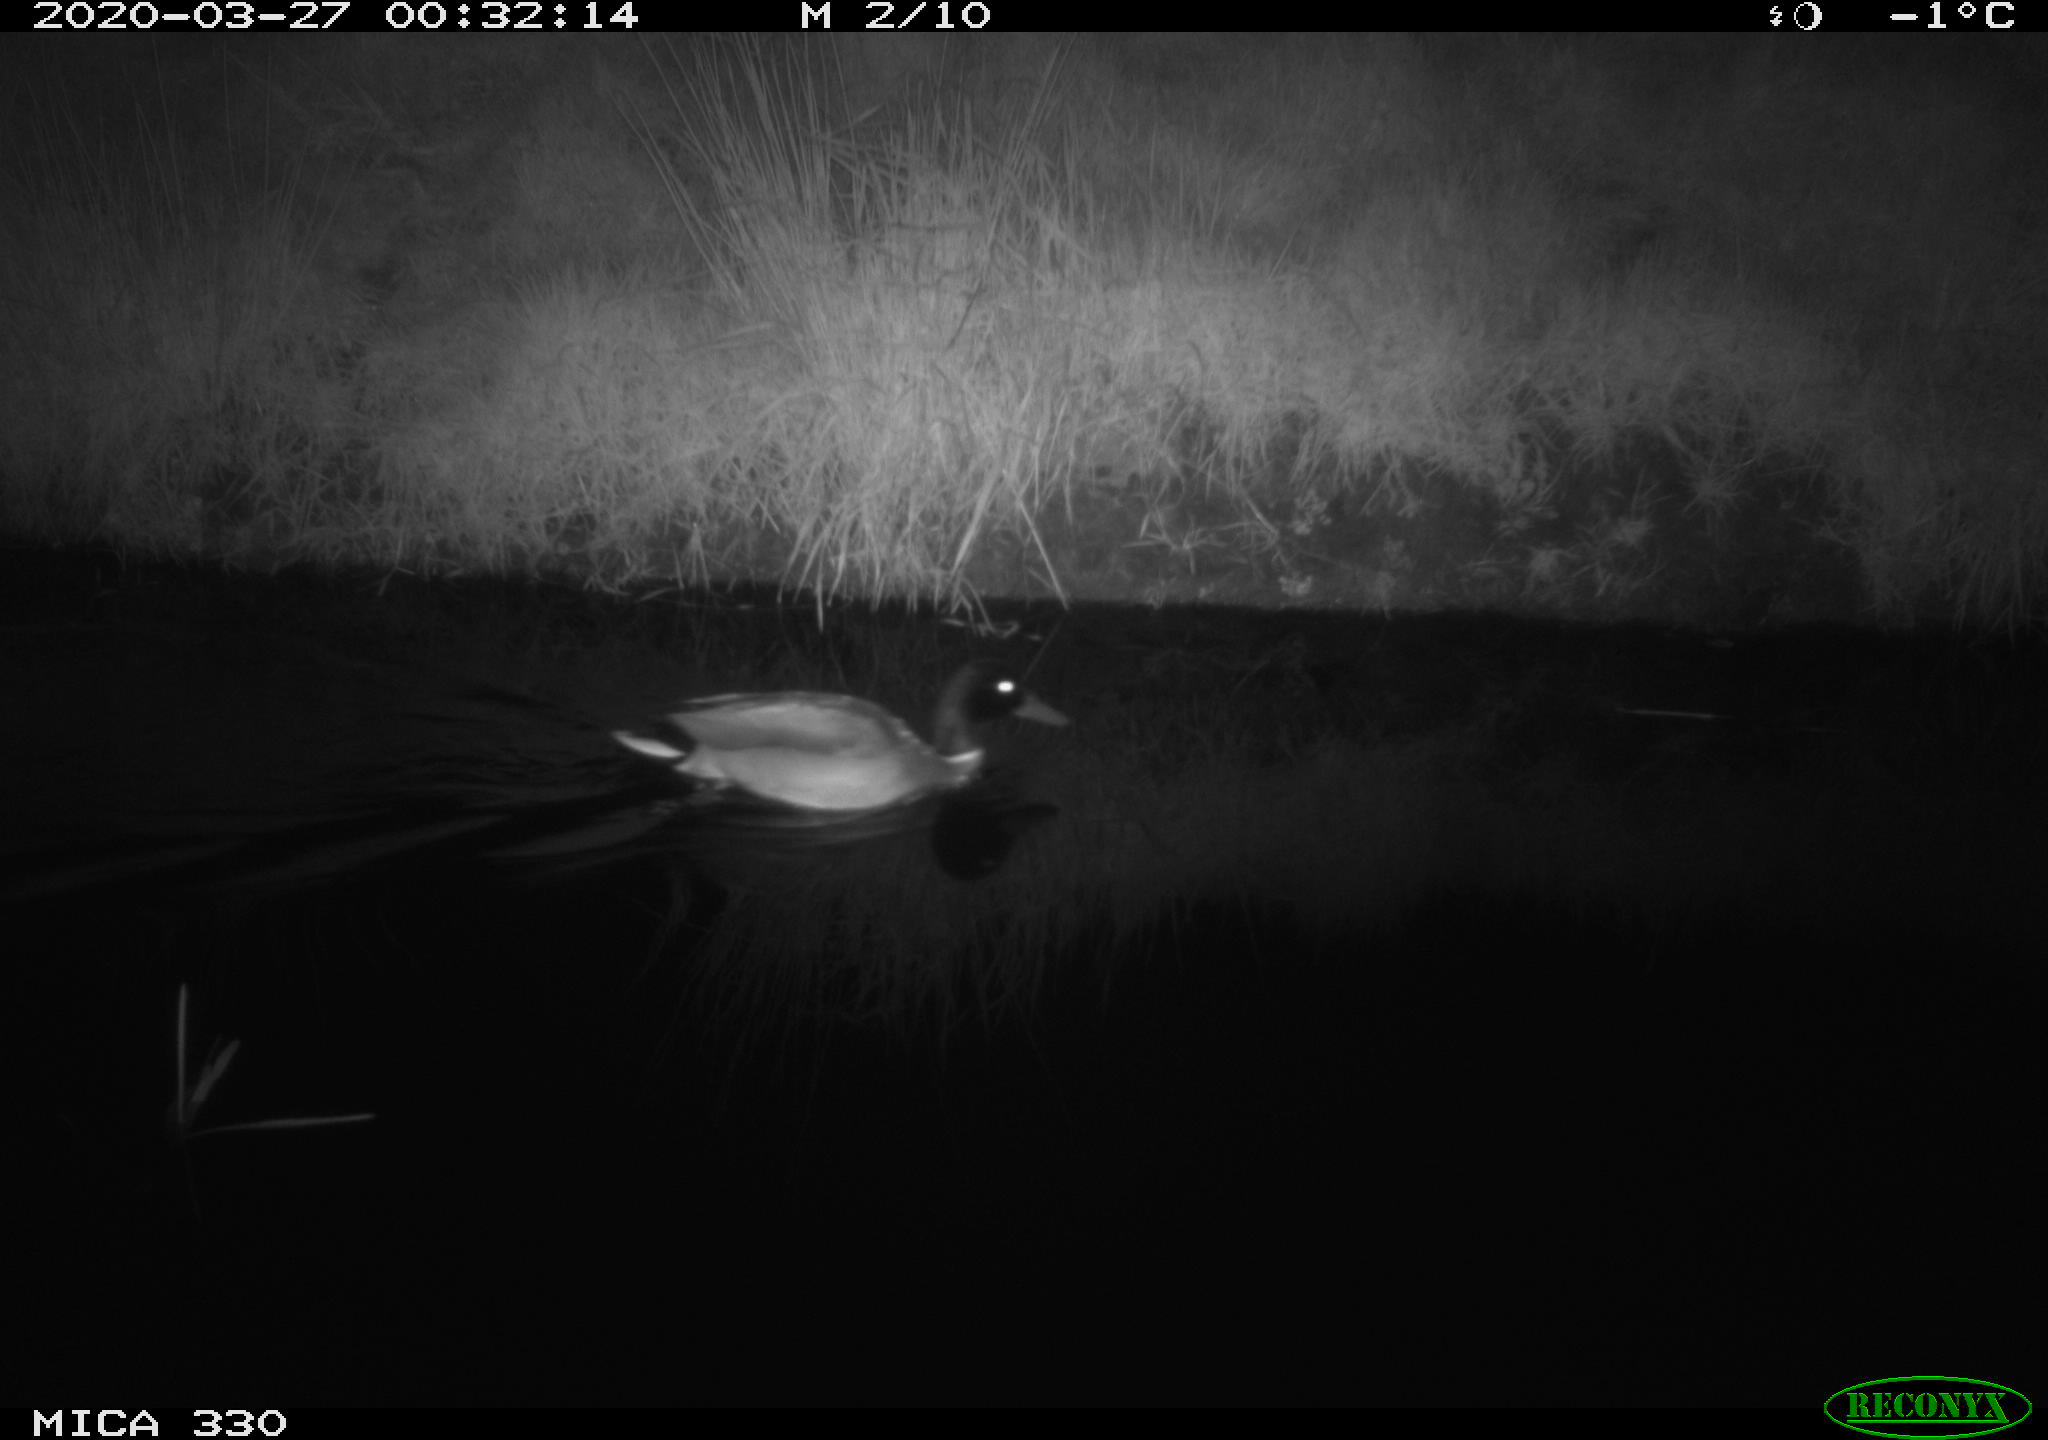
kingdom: Animalia
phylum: Chordata
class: Aves
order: Anseriformes
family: Anatidae
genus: Anas
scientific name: Anas platyrhynchos
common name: Mallard
